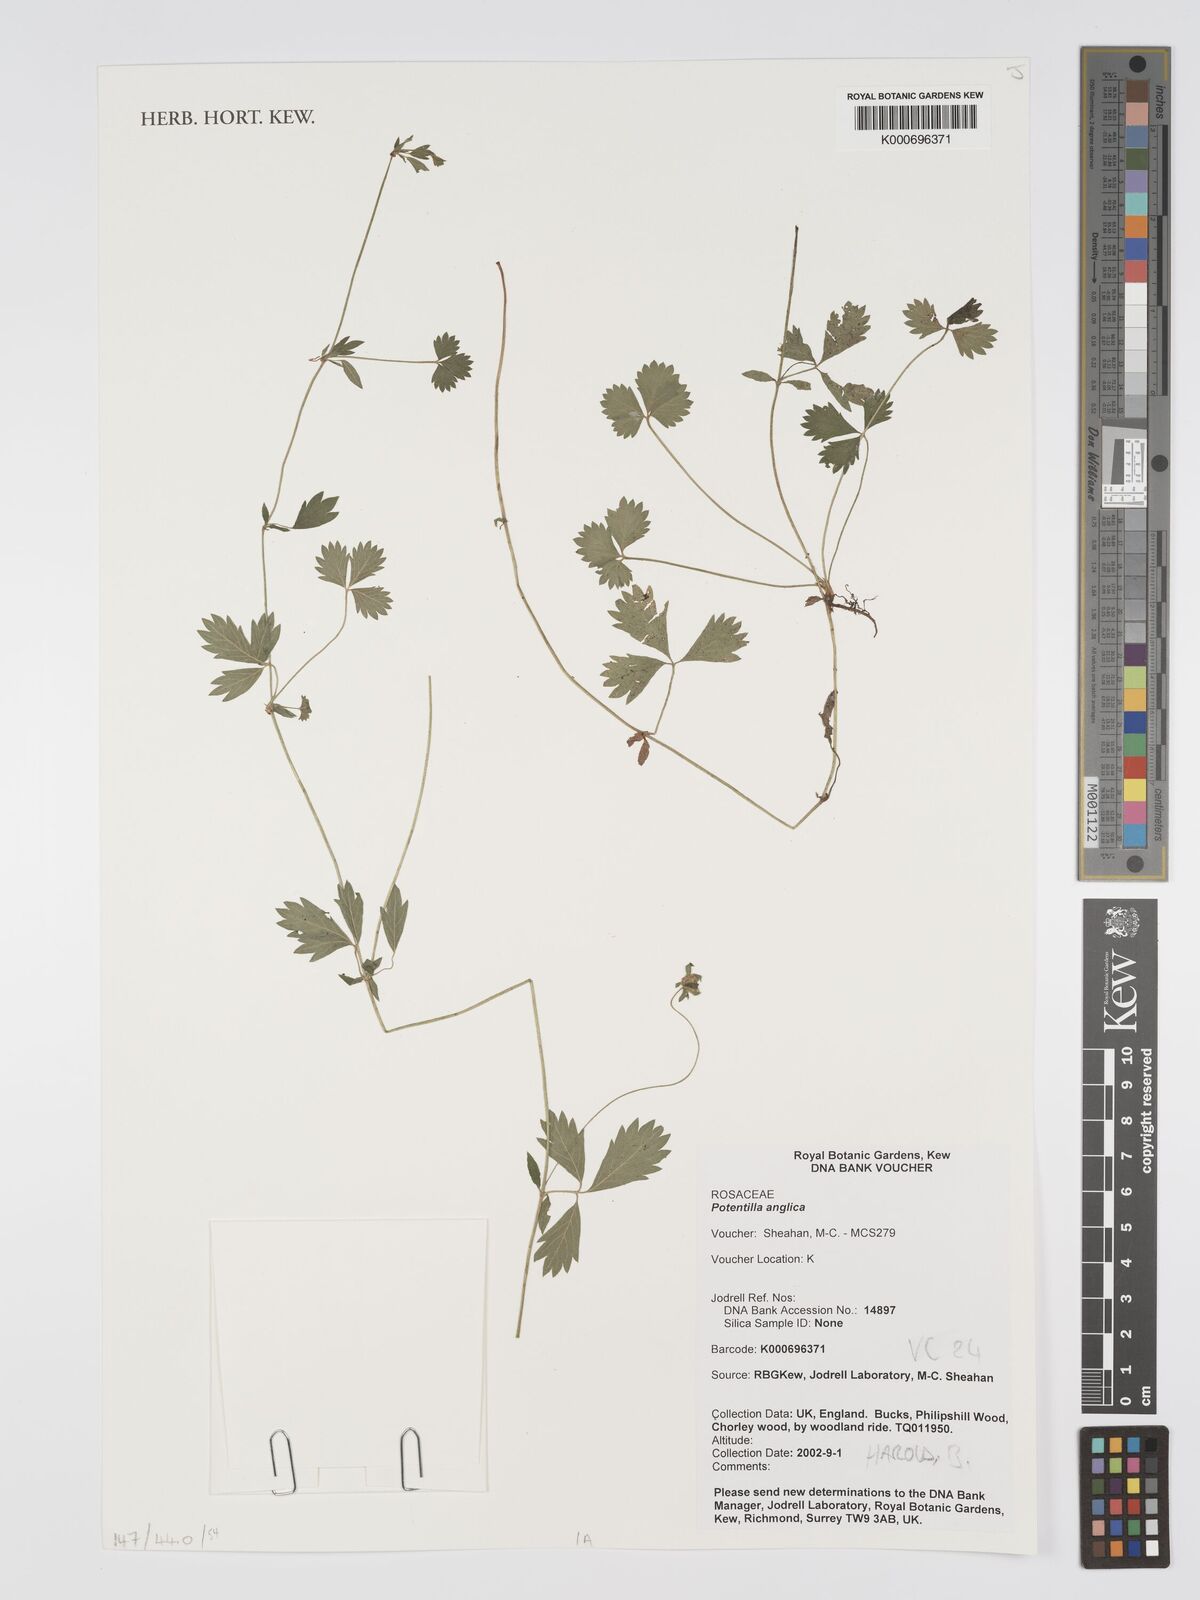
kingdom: Plantae
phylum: Tracheophyta
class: Magnoliopsida
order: Rosales
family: Rosaceae
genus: Potentilla
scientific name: Potentilla anglica
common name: Trailing tormentil
